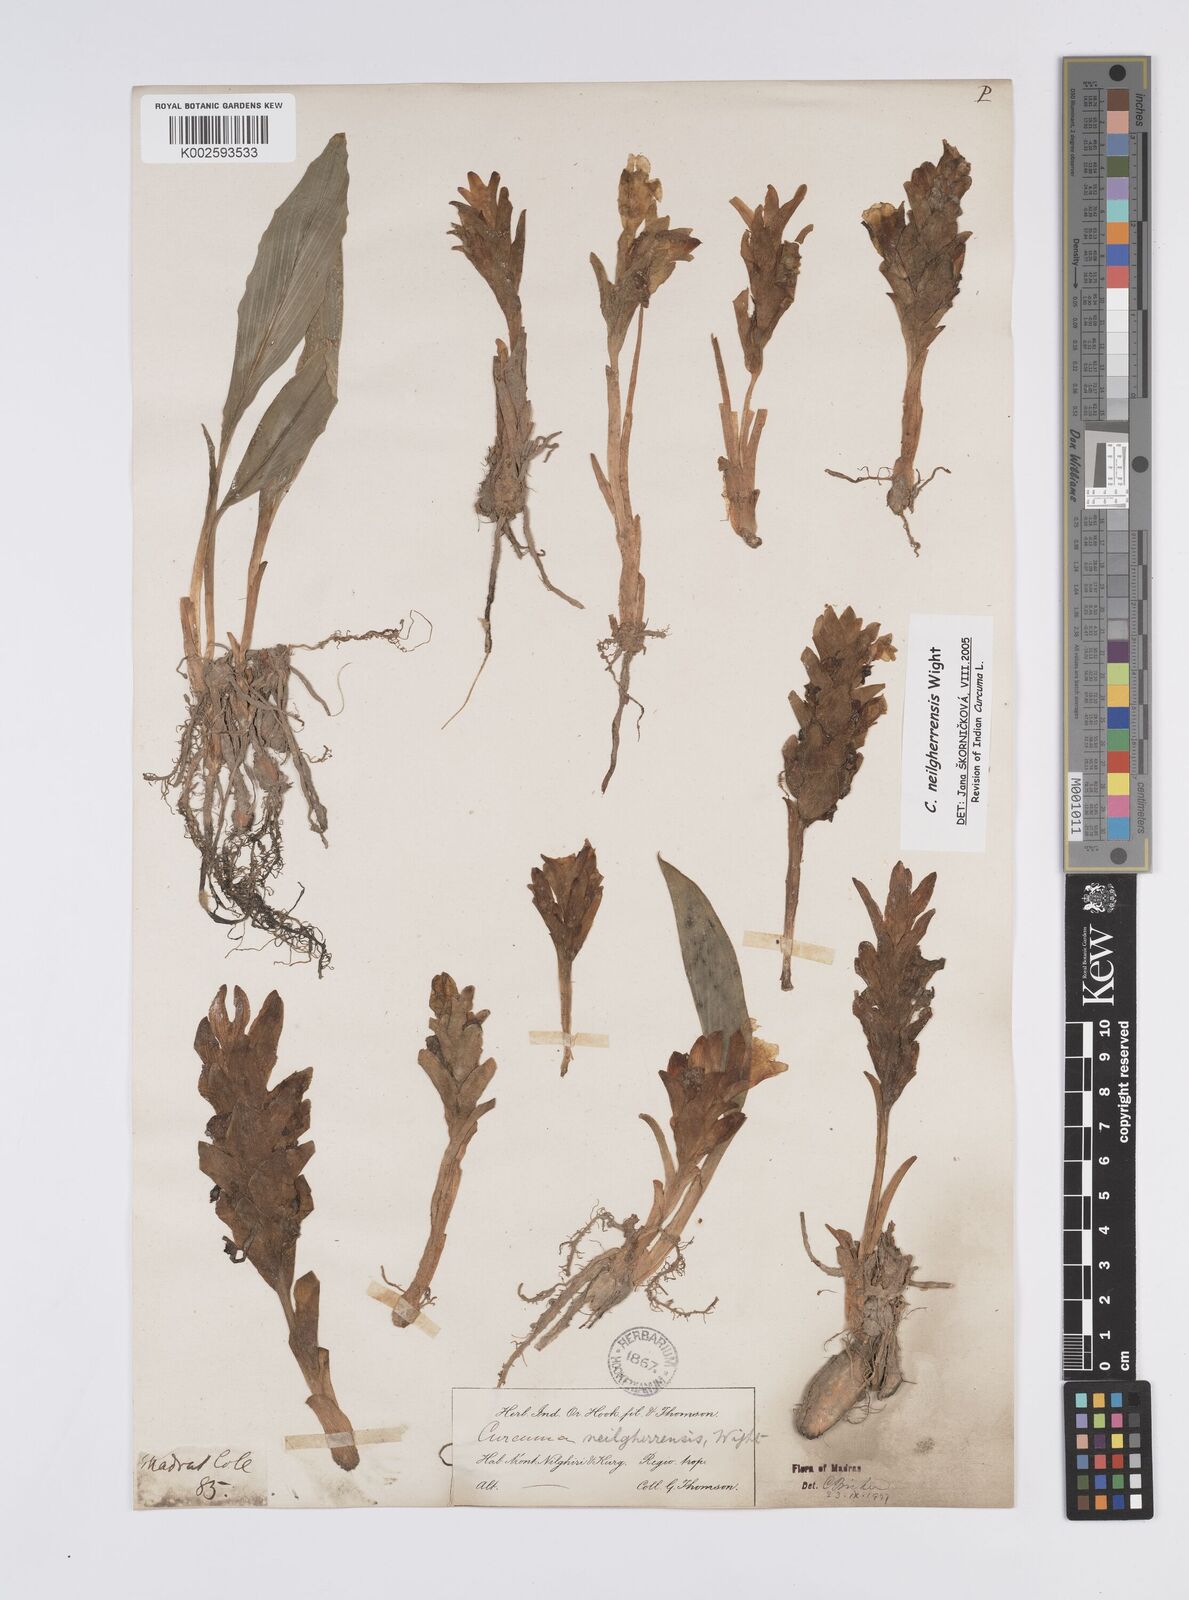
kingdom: Plantae
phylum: Tracheophyta
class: Liliopsida
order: Zingiberales
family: Zingiberaceae
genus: Curcuma
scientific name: Curcuma neilgherrensis
